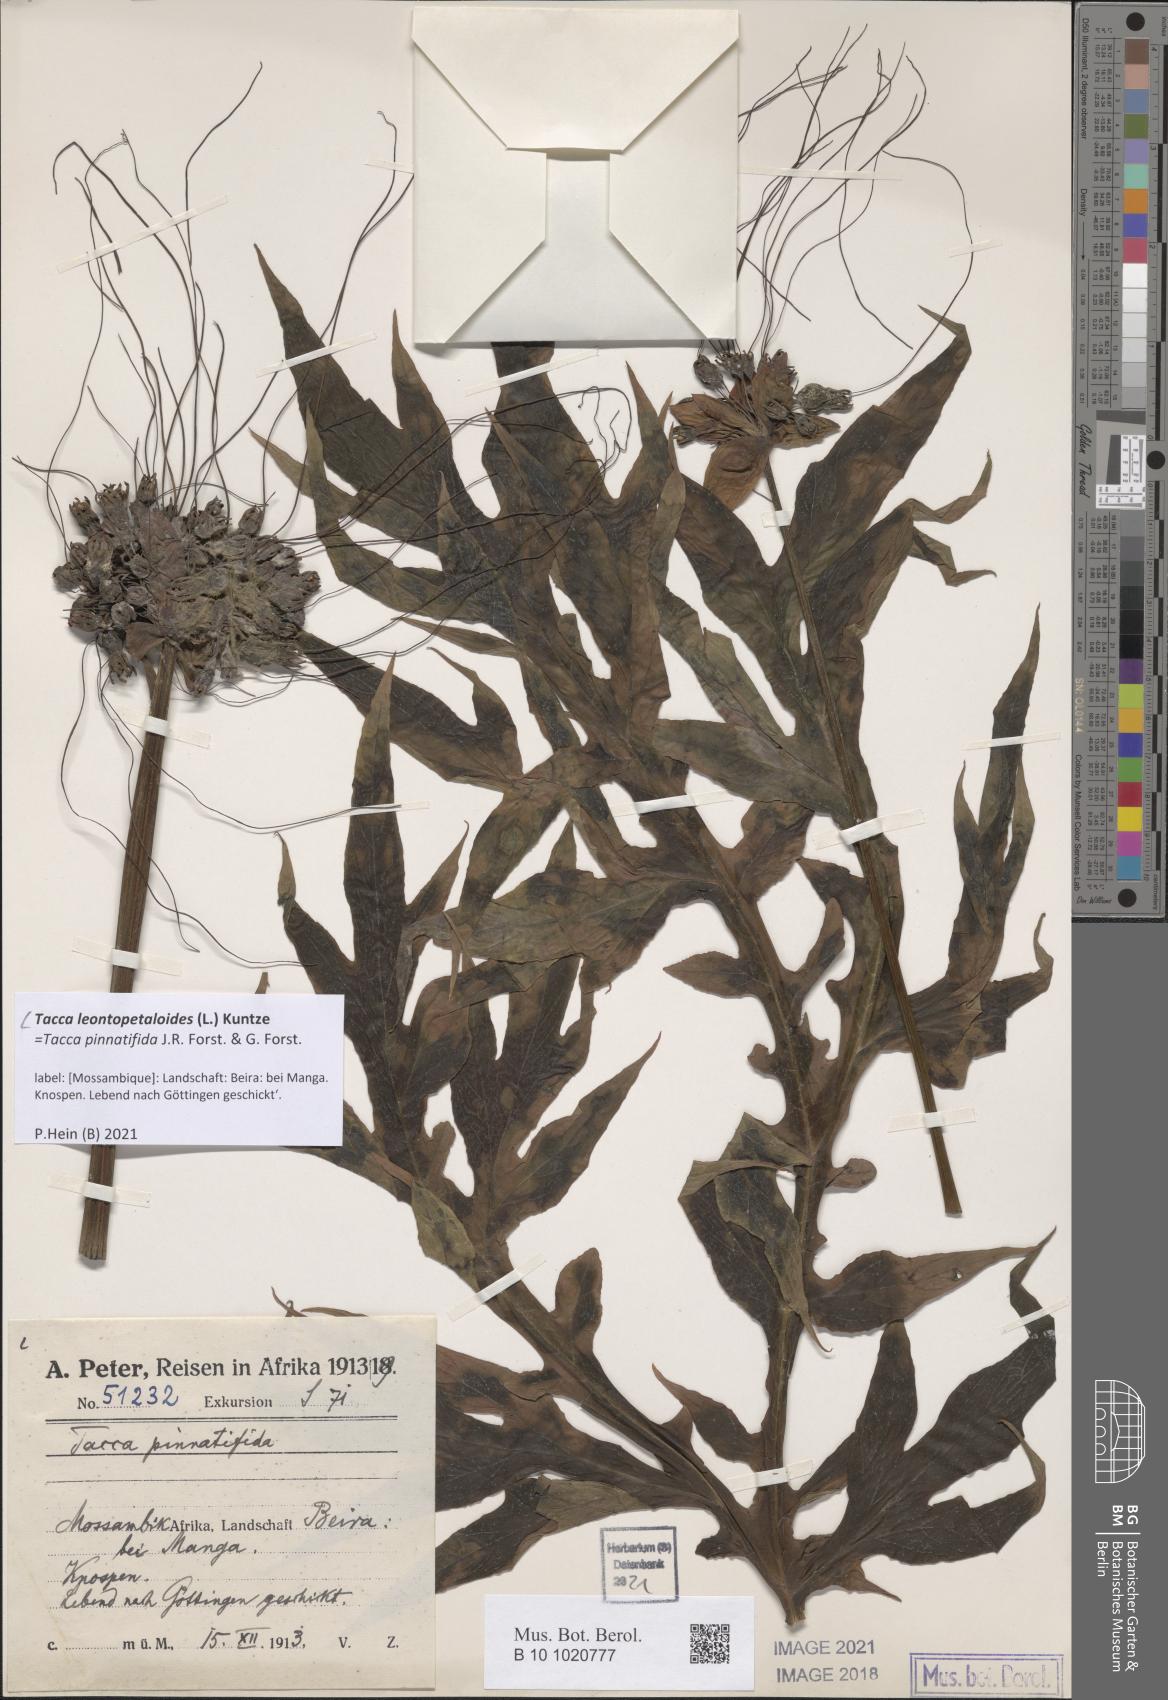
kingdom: Plantae
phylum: Tracheophyta
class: Liliopsida
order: Dioscoreales
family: Dioscoreaceae
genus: Tacca
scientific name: Tacca leontopetaloides
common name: Arrowroot
